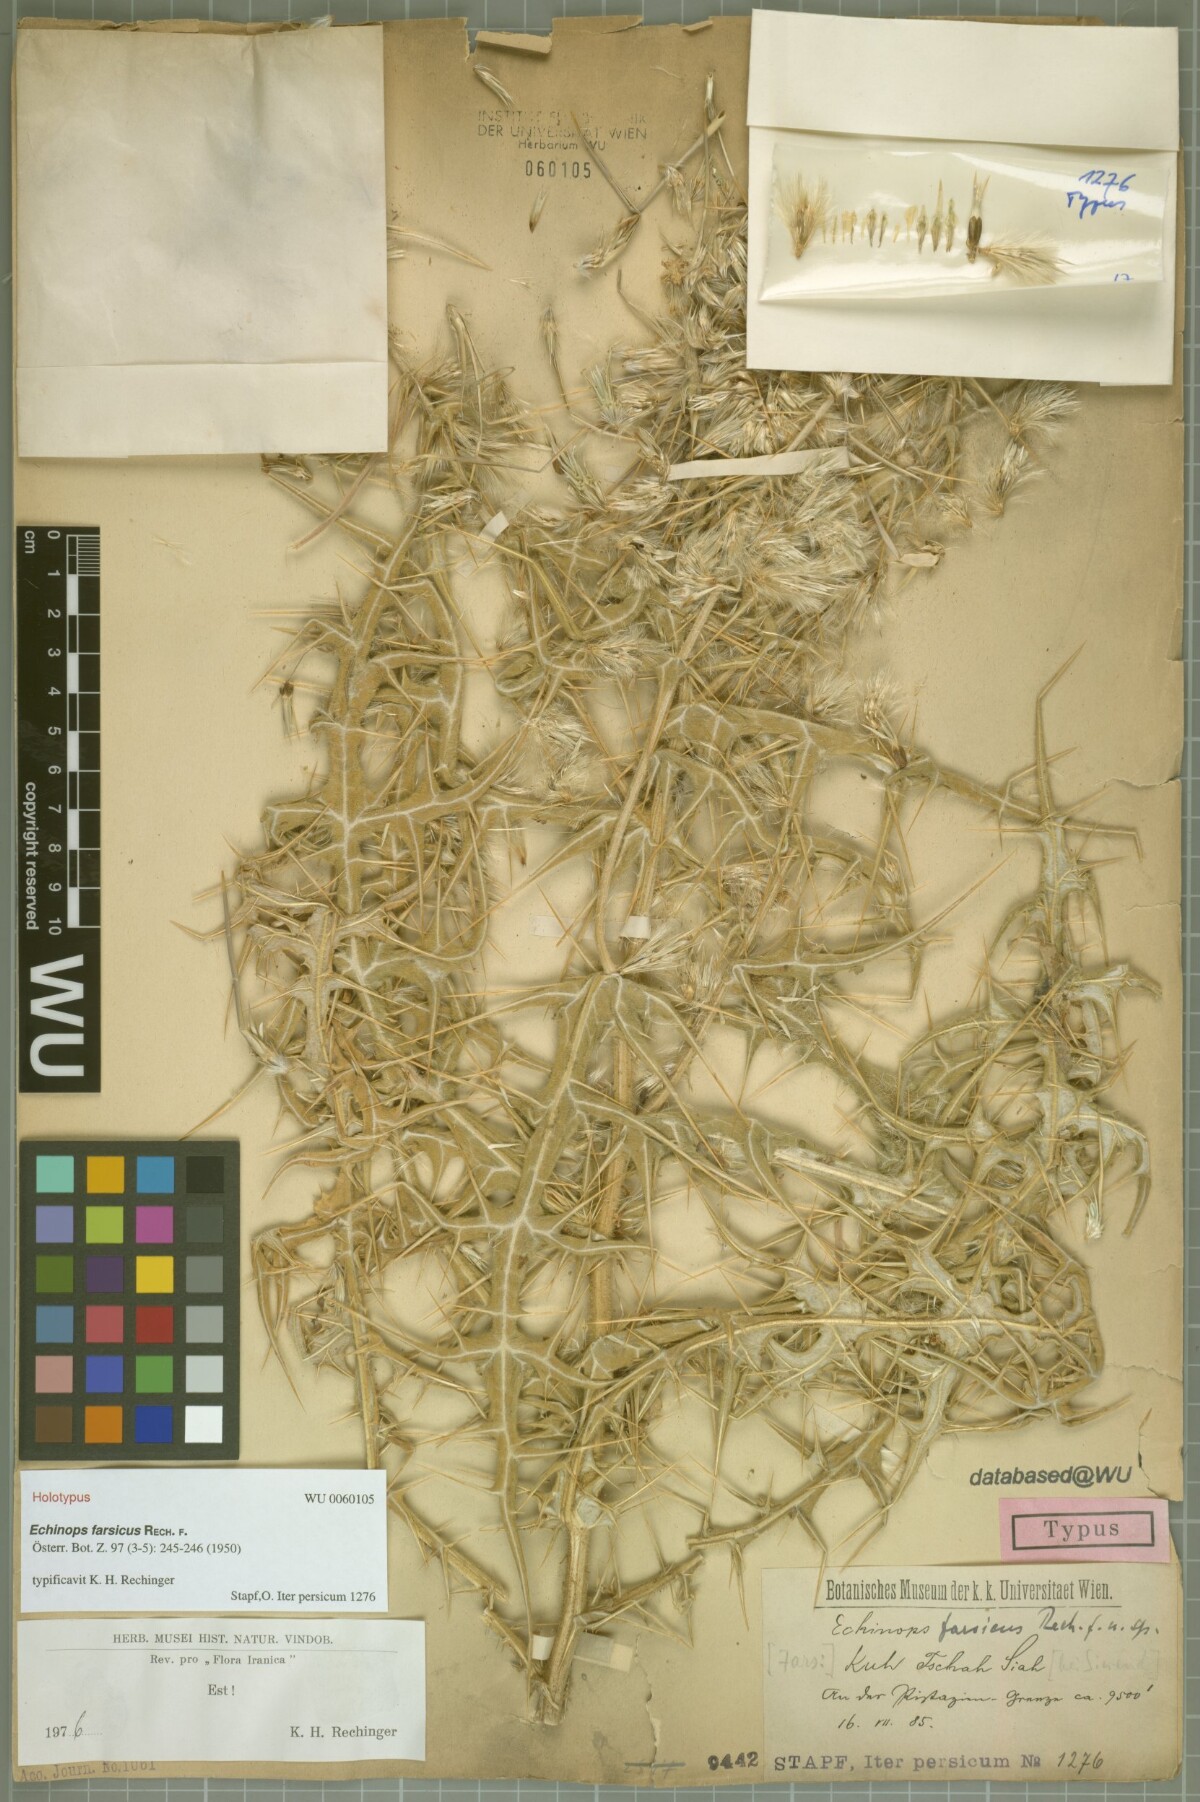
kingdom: Plantae
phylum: Tracheophyta
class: Magnoliopsida
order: Asterales
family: Asteraceae
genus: Echinops
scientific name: Echinops ceratophorus
